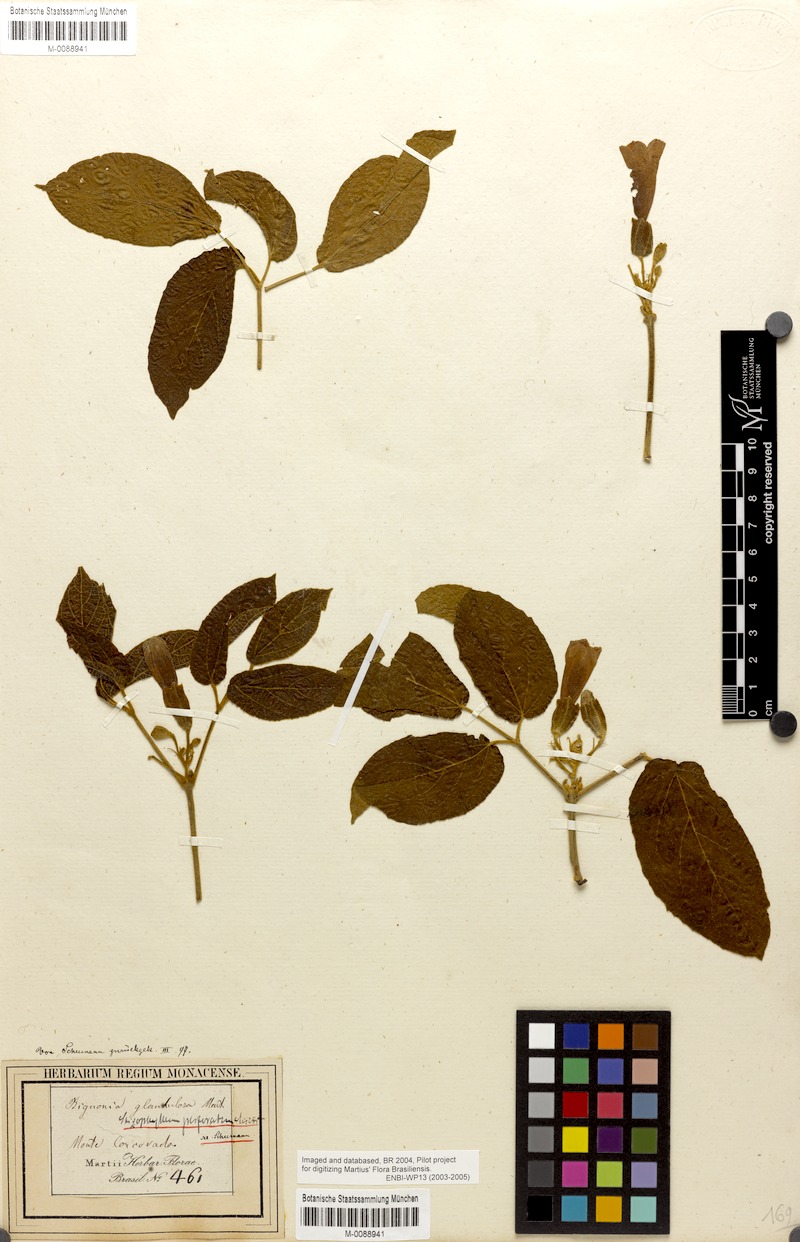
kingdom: Plantae
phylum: Tracheophyta
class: Magnoliopsida
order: Lamiales
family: Bignoniaceae
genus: Stizophyllum
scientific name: Stizophyllum perforatum
